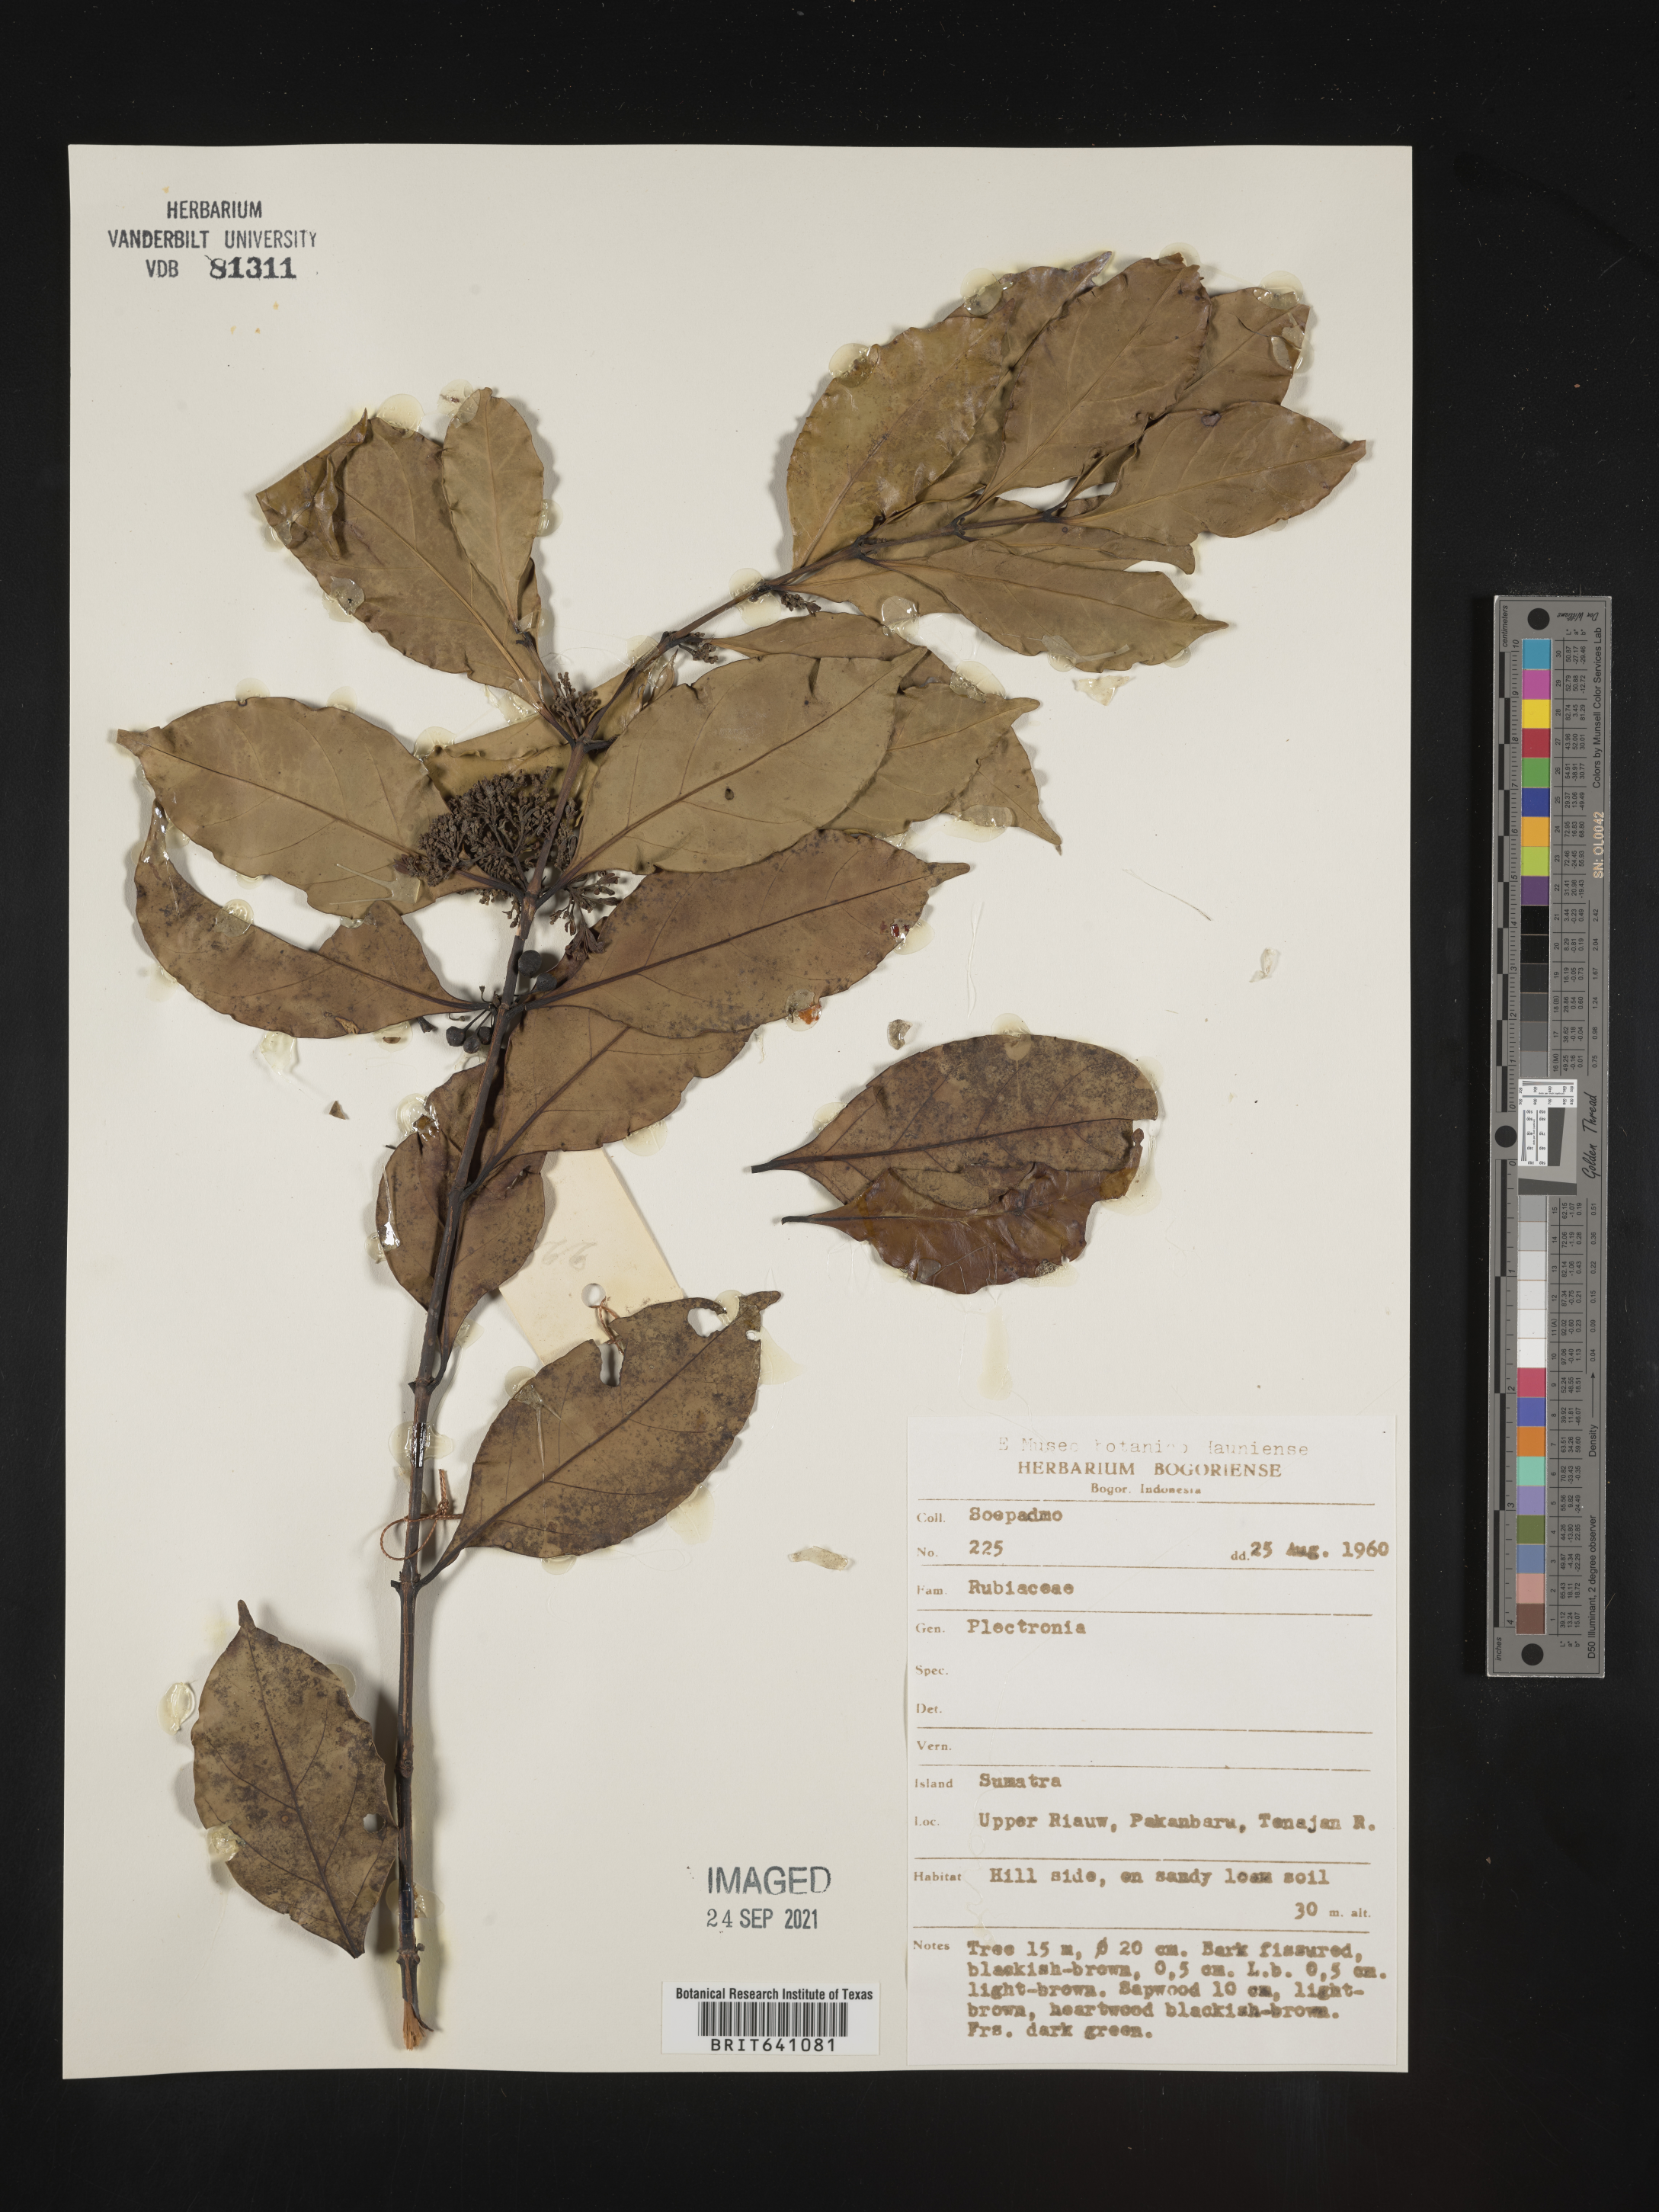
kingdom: Plantae
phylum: Tracheophyta
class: Magnoliopsida
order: Myrtales
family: Lythraceae
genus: Plectronia
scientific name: Plectronia
